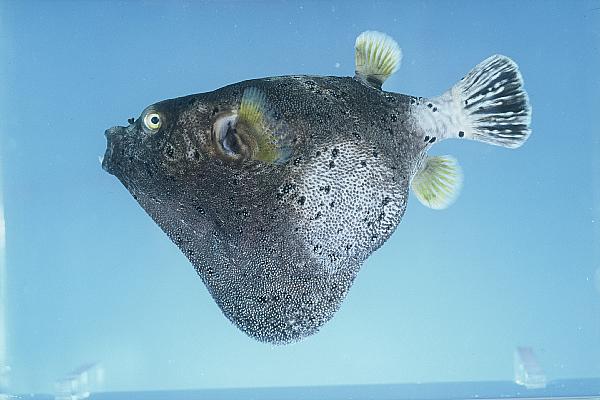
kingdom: Animalia
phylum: Chordata
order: Tetraodontiformes
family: Tetraodontidae
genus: Arothron
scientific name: Arothron nigropunctatus
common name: Black spotted blow fish
